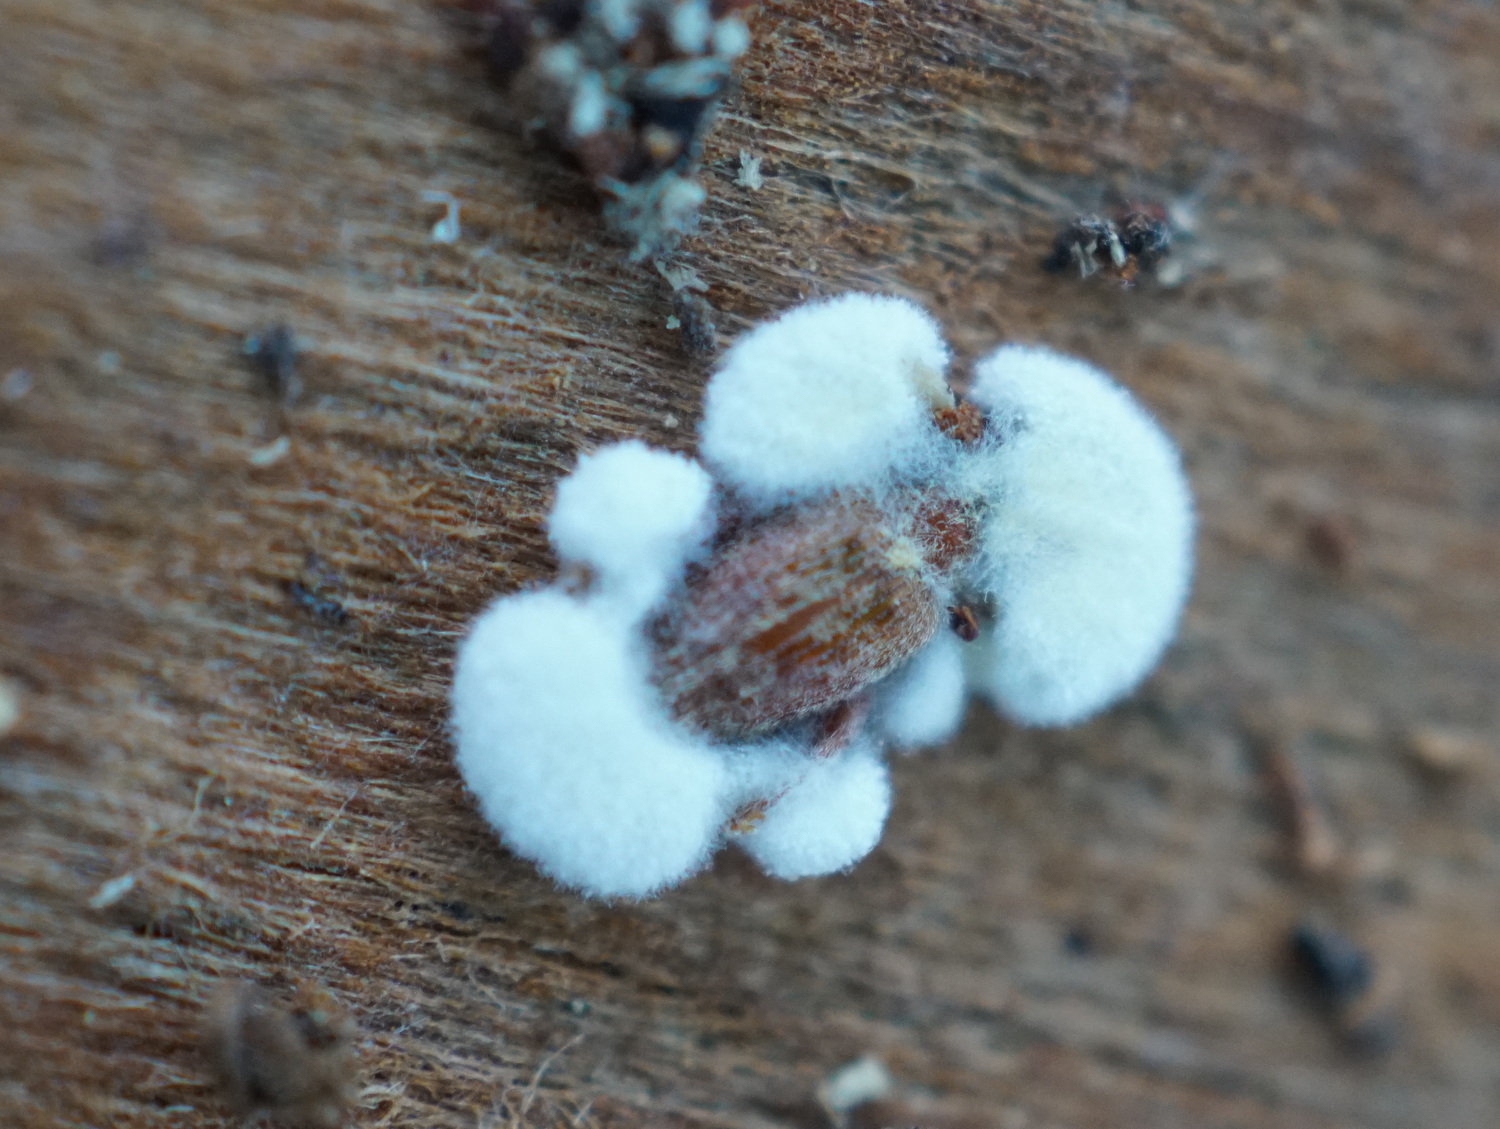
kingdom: Fungi
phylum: Ascomycota
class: Sordariomycetes
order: Hypocreales
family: Cordycipitaceae
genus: Beauveria
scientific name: Beauveria bassiana
